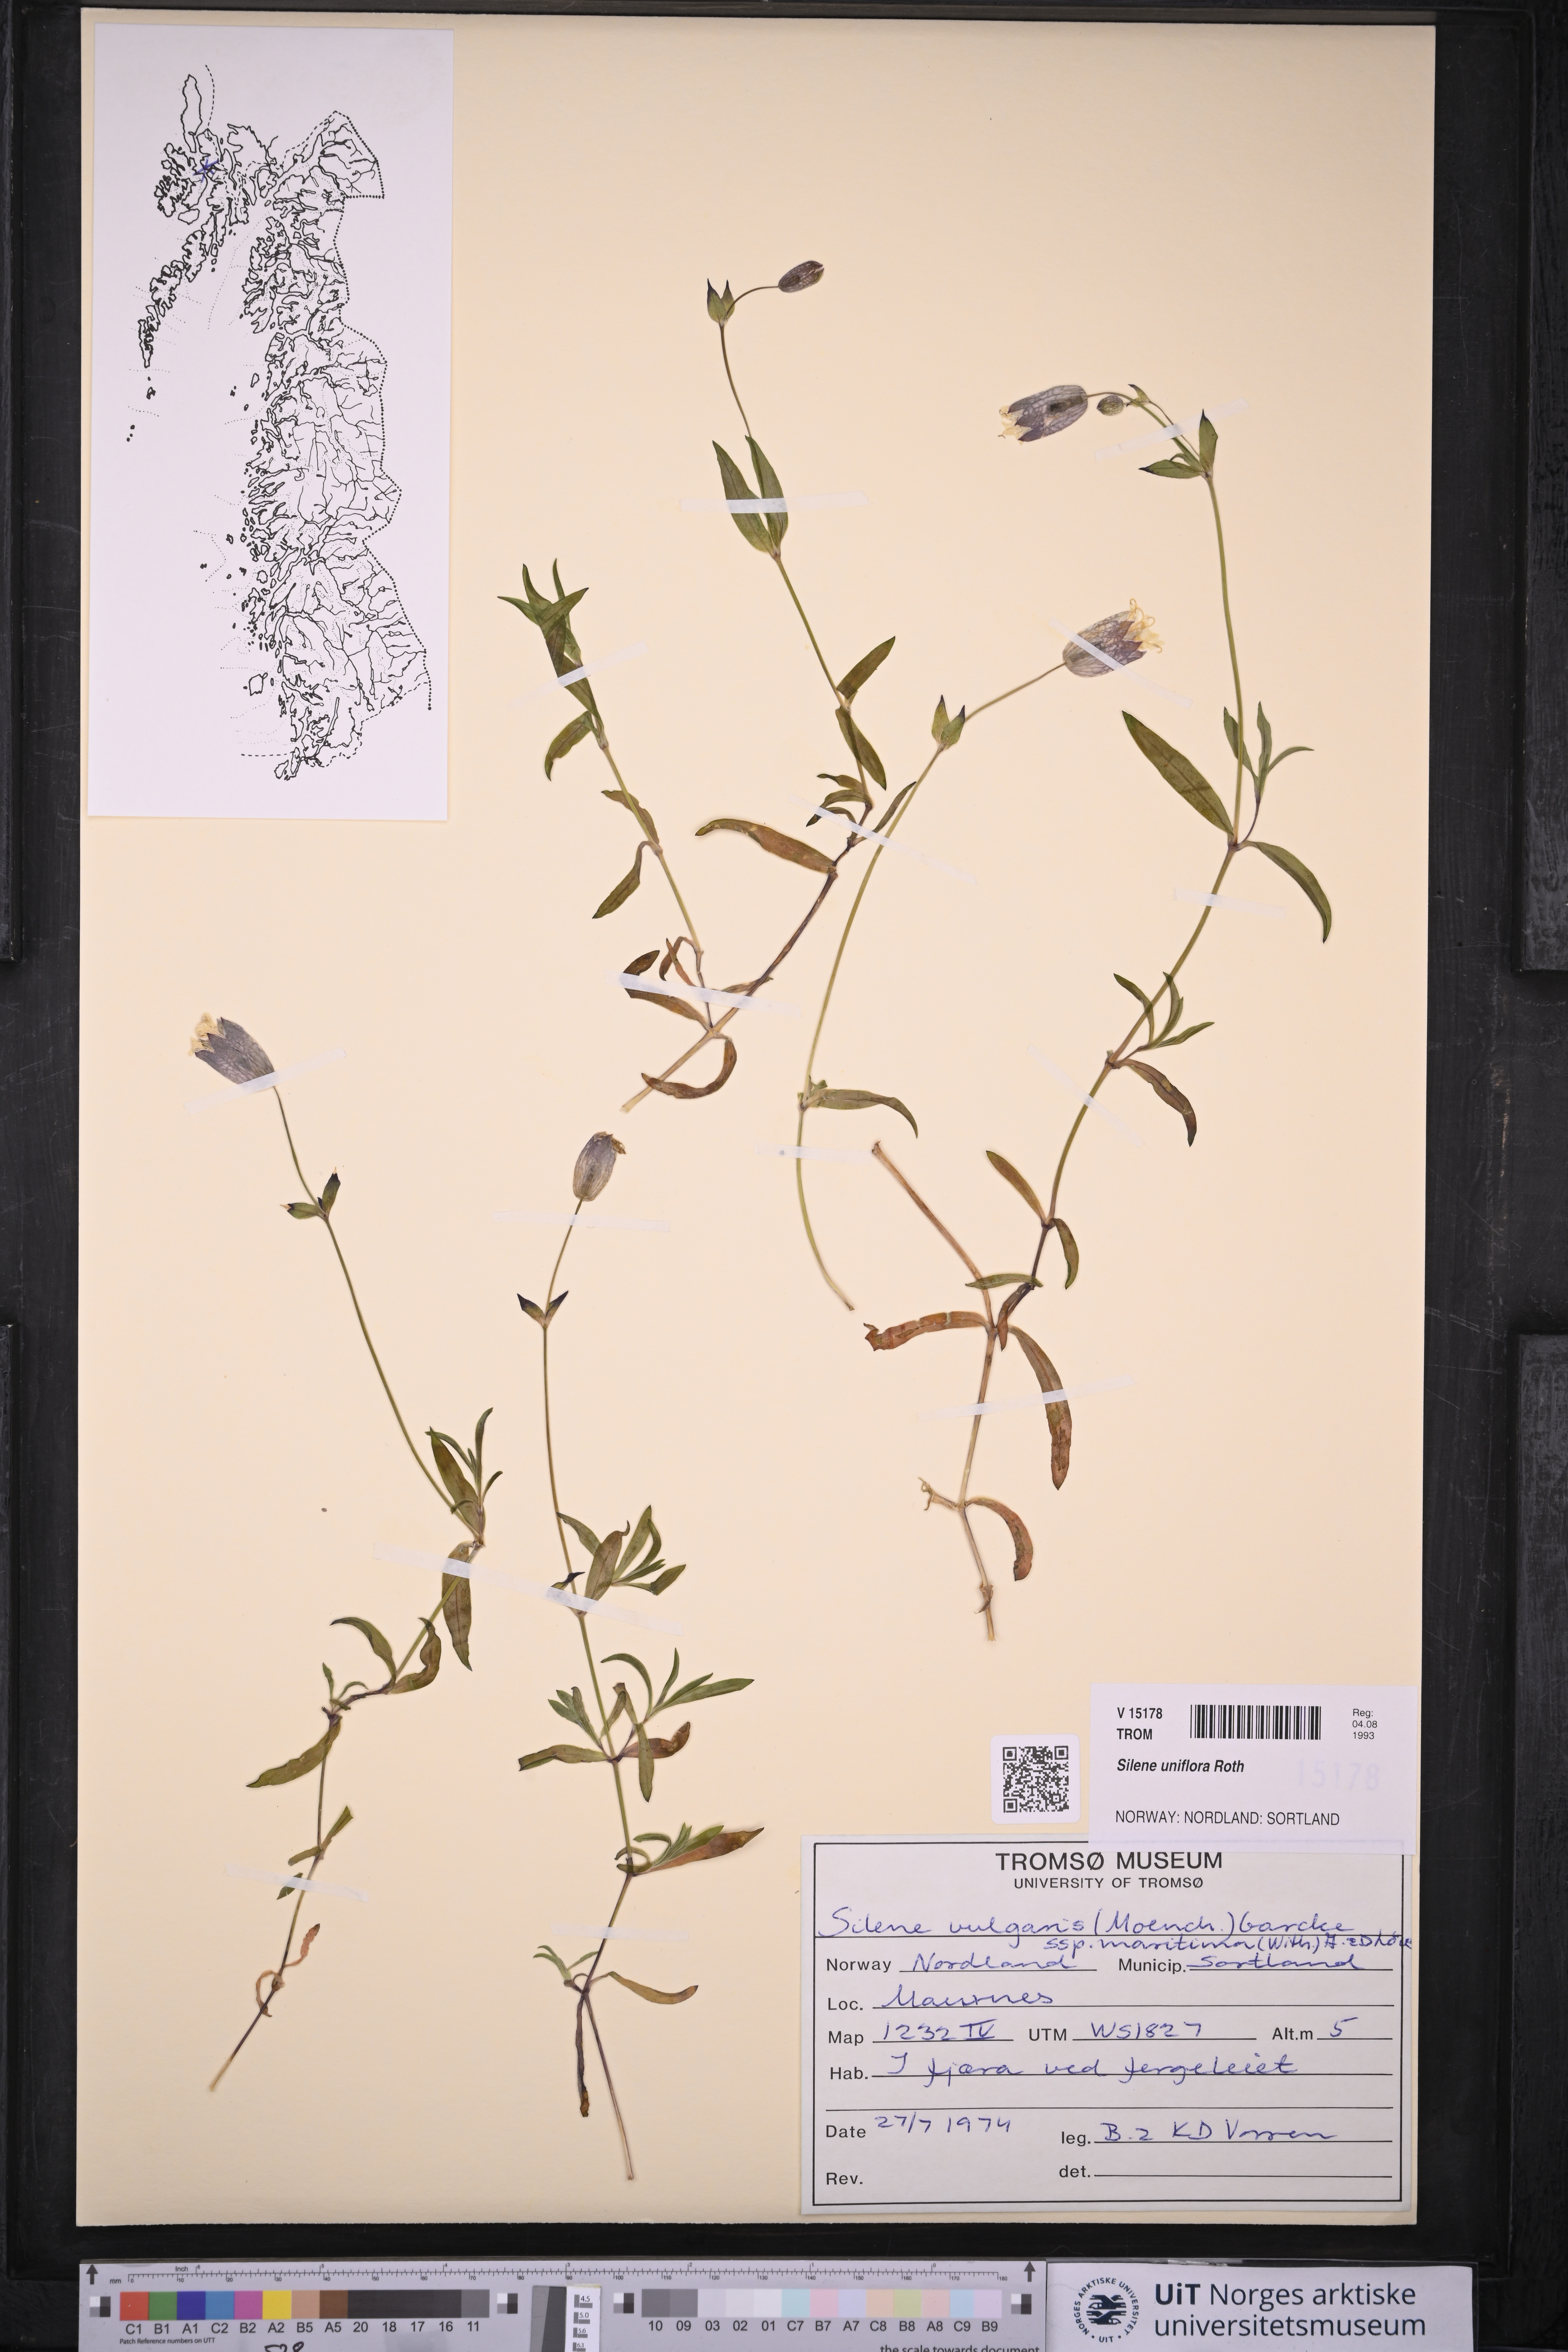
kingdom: Plantae
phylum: Tracheophyta
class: Magnoliopsida
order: Caryophyllales
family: Caryophyllaceae
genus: Silene
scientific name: Silene uniflora
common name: Sea campion
